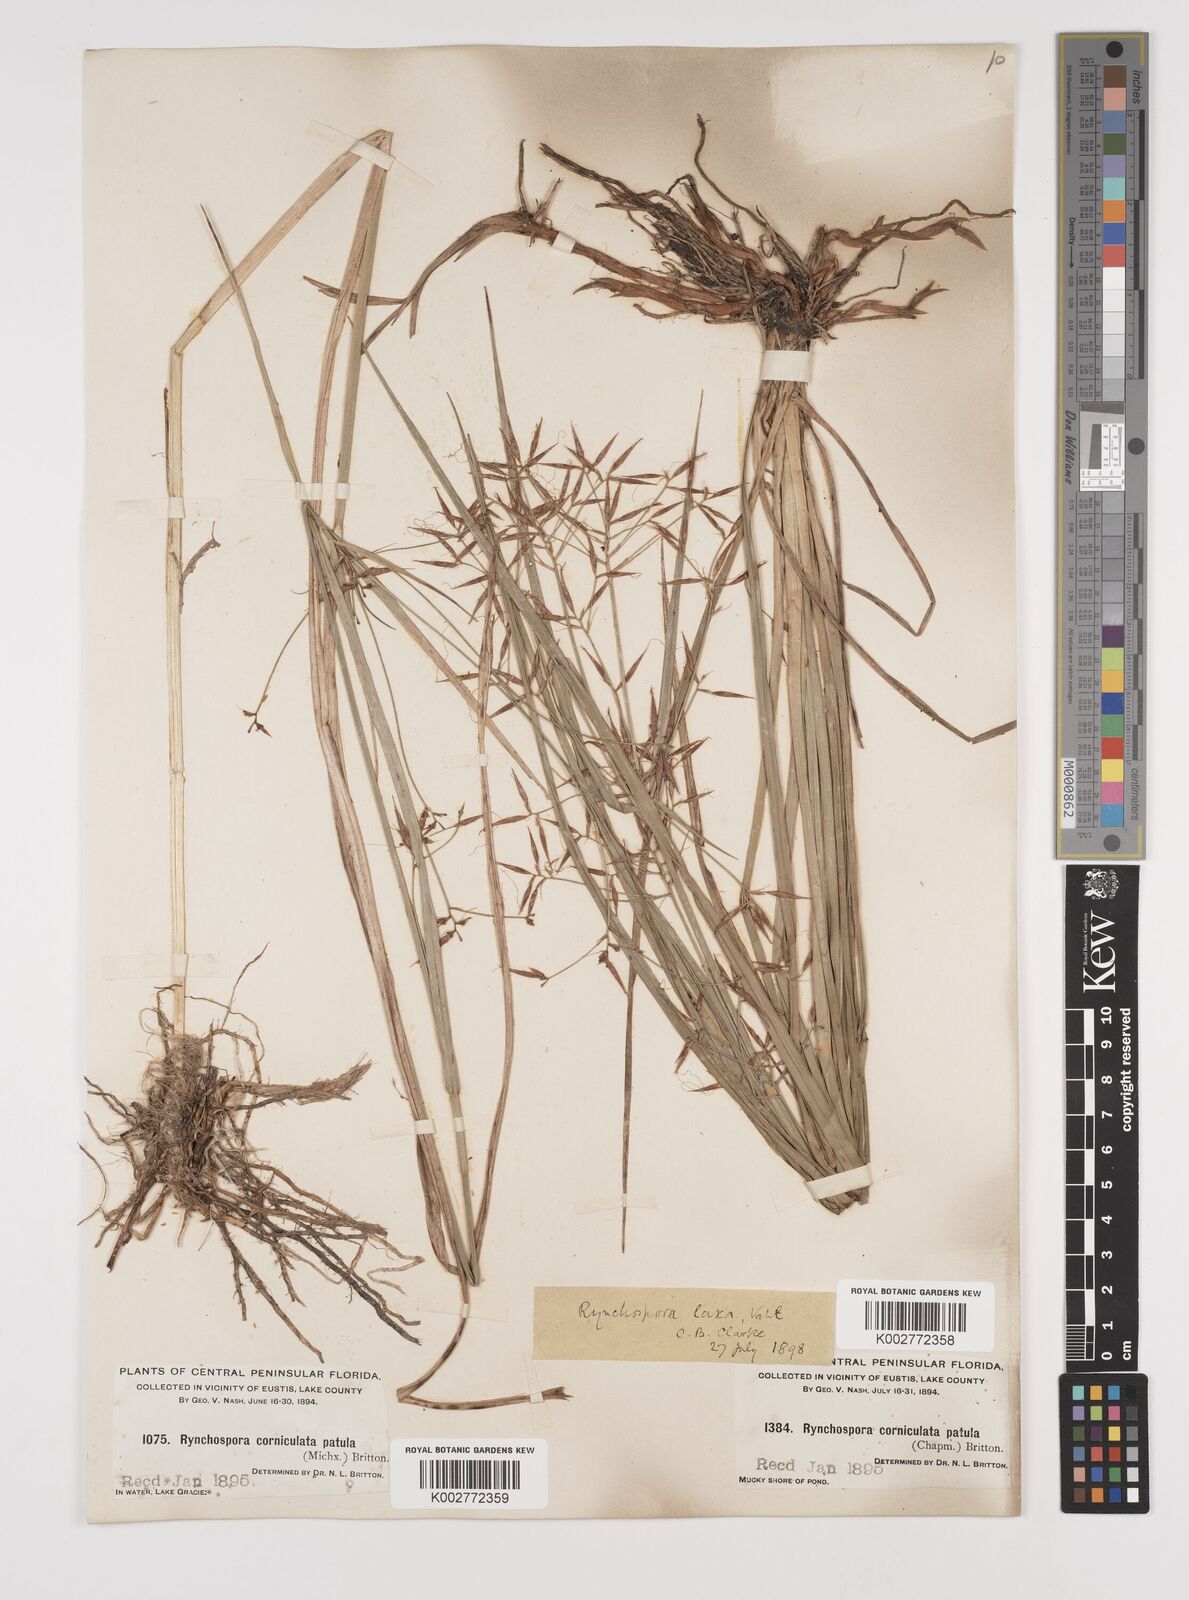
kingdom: Plantae
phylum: Tracheophyta
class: Liliopsida
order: Poales
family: Cyperaceae
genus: Rhynchospora
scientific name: Rhynchospora corniculata
